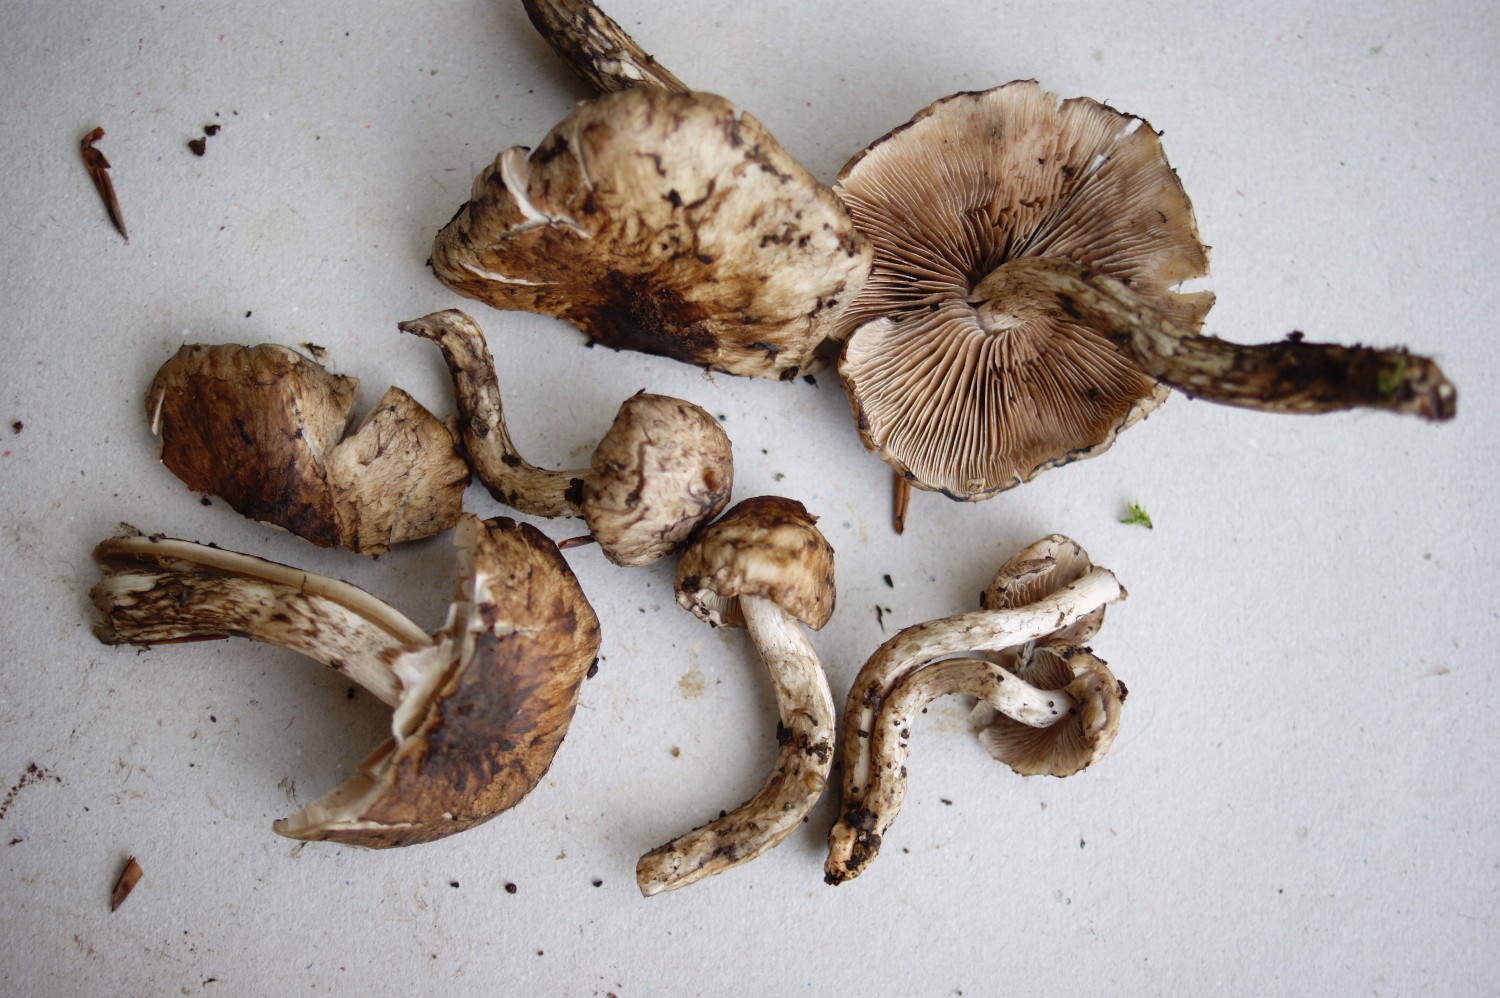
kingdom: Fungi
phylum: Basidiomycota
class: Agaricomycetes
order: Agaricales
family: Psathyrellaceae
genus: Psathyrella
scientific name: Psathyrella maculata
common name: sortskællet mørkhat
